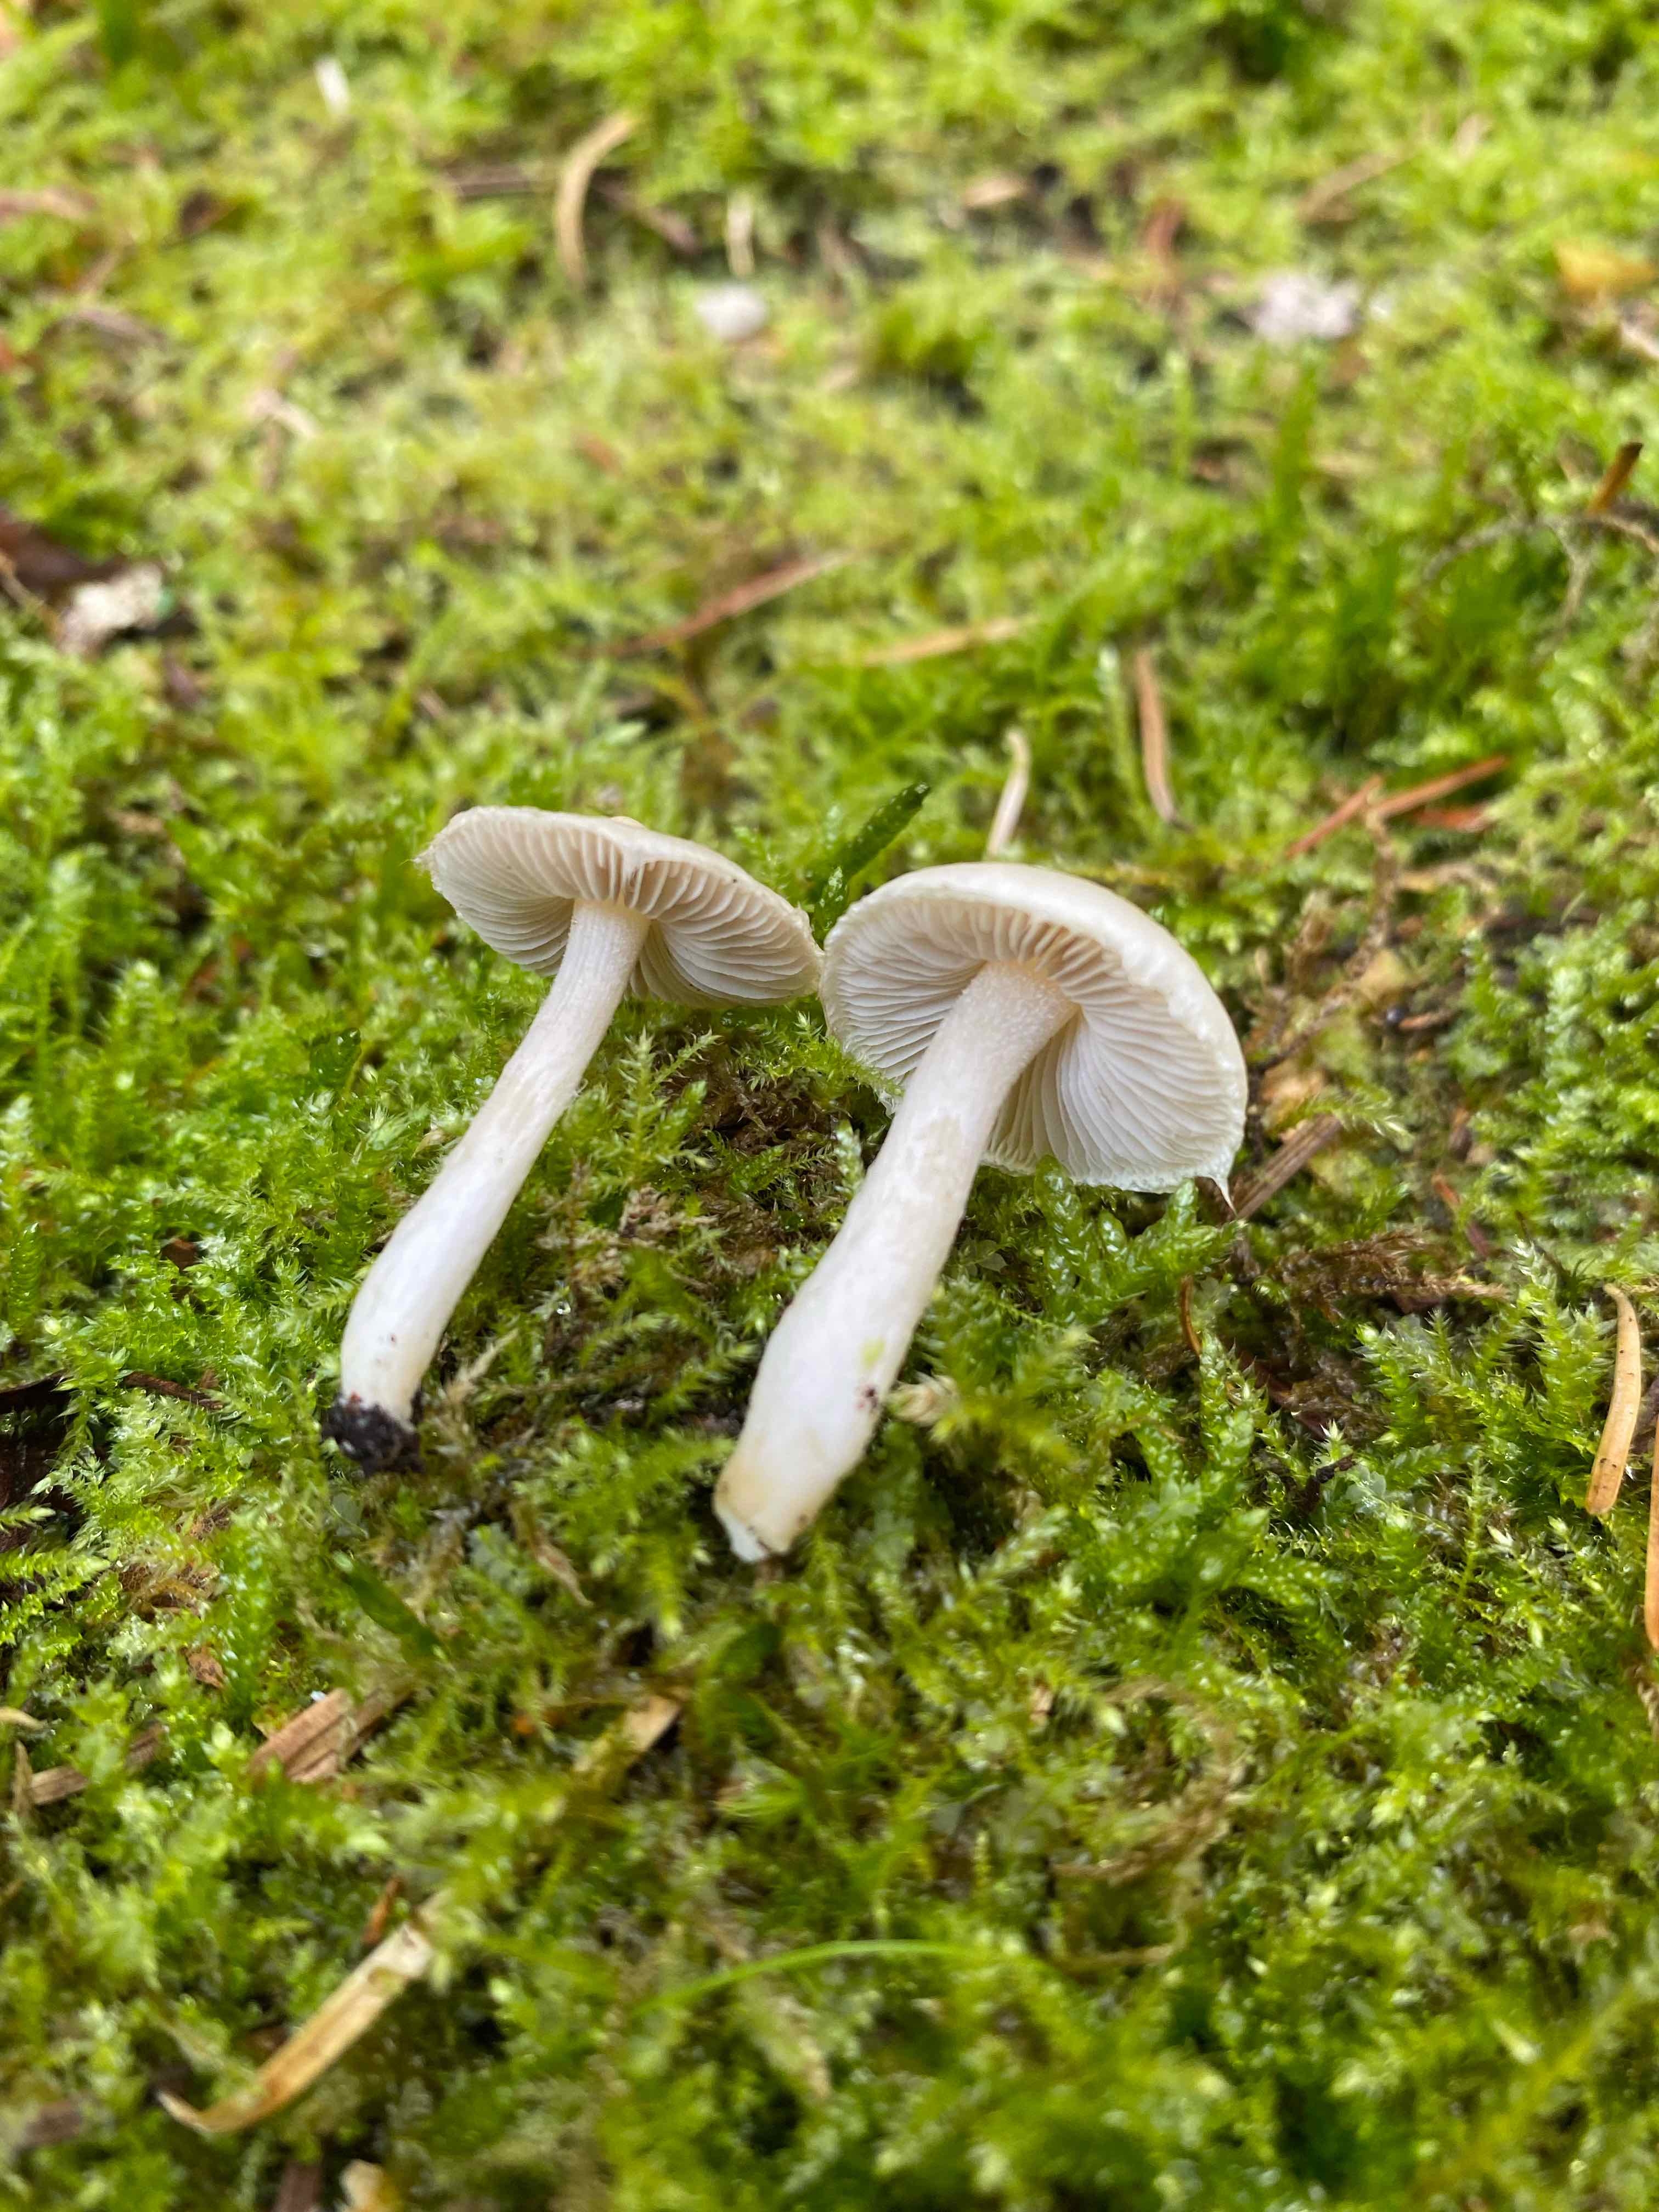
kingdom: Fungi
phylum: Basidiomycota
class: Agaricomycetes
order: Agaricales
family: Inocybaceae
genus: Inocybe
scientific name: Inocybe
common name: trævlhat
